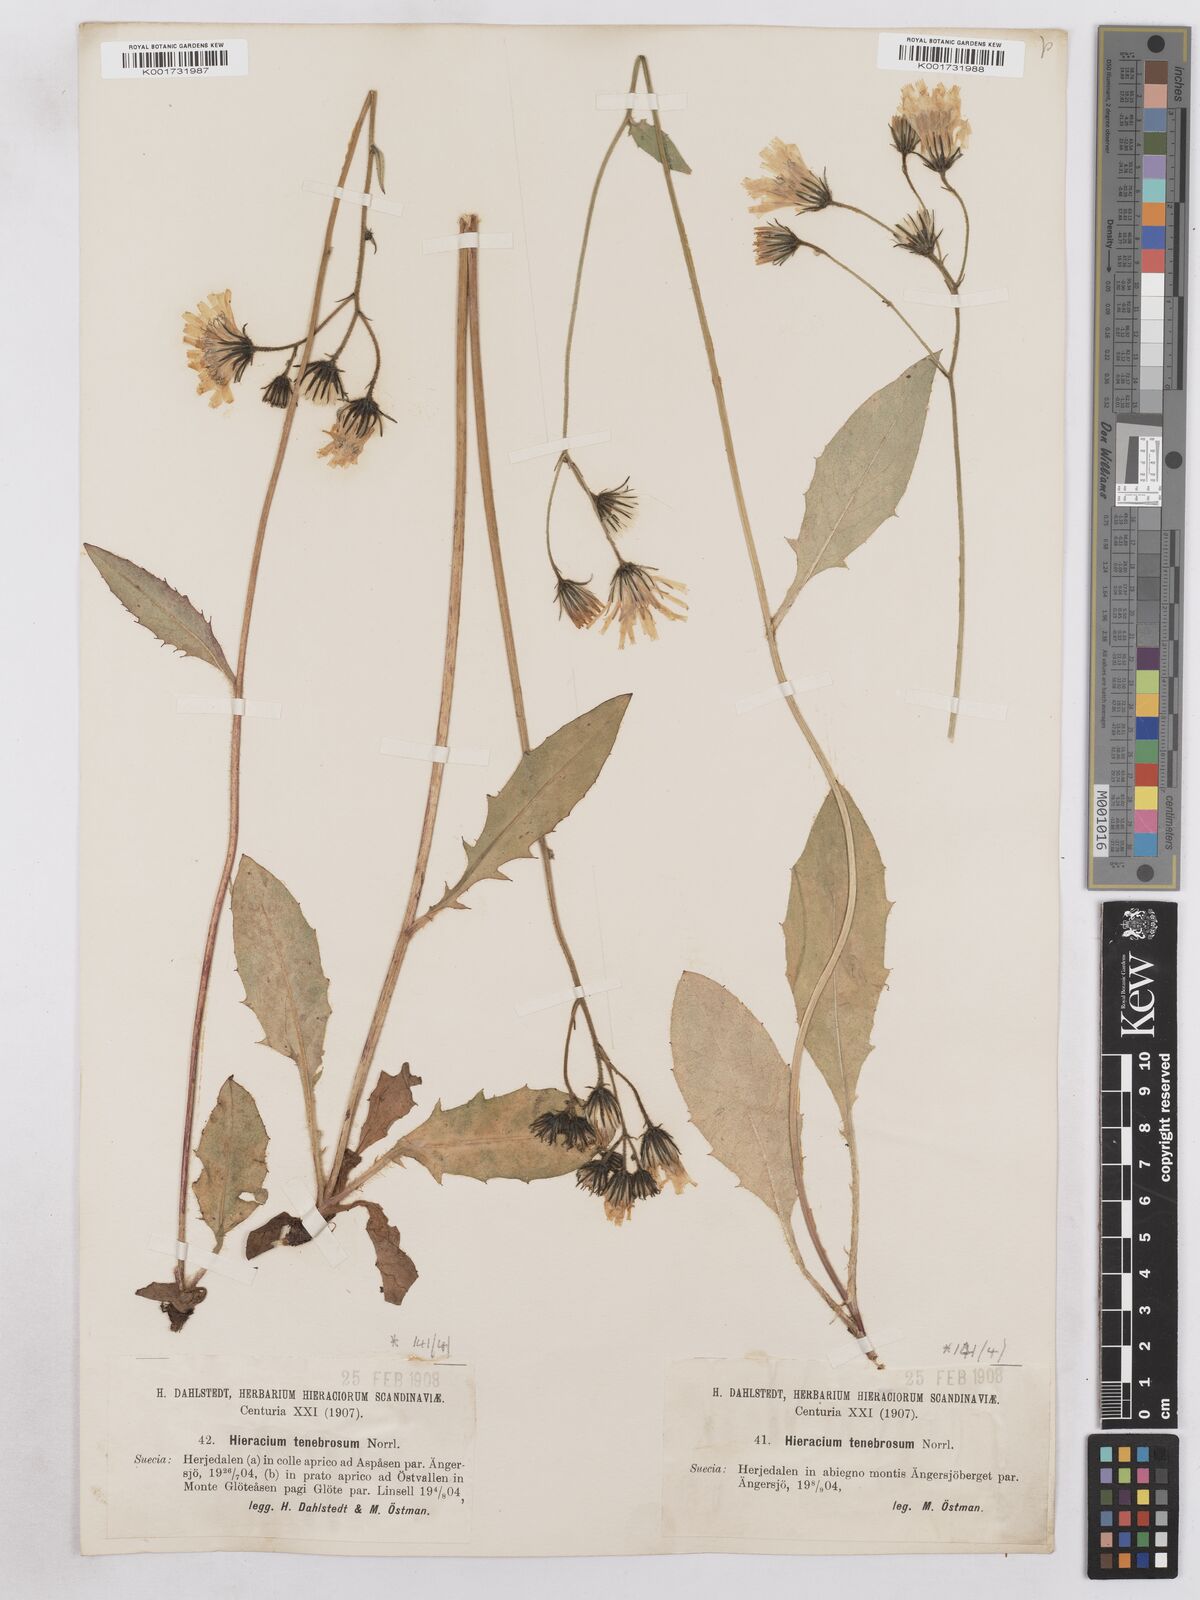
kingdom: Plantae
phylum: Tracheophyta
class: Magnoliopsida
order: Asterales
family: Asteraceae
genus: Hieracium
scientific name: Hieracium diaphanoides
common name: Fine-bracted hawkweed
